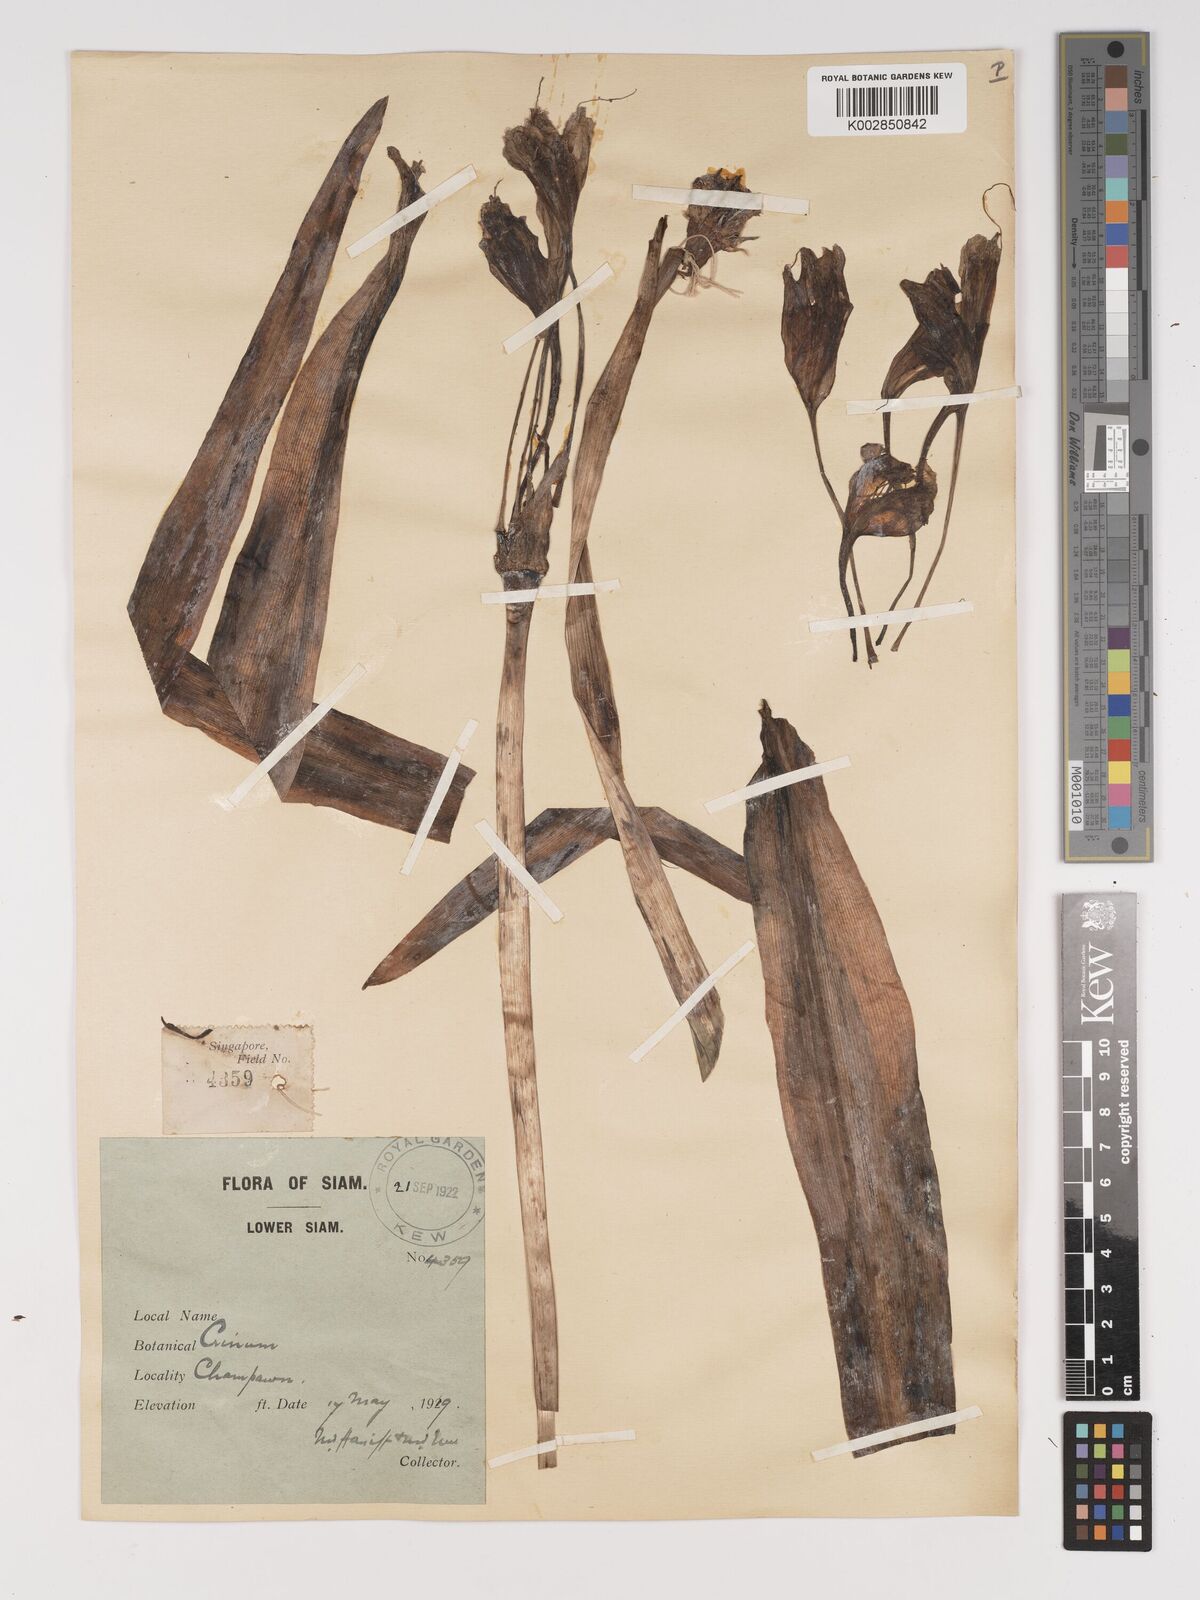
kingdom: Plantae
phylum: Tracheophyta
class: Liliopsida
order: Asparagales
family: Amaryllidaceae
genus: Crinum
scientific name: Crinum
